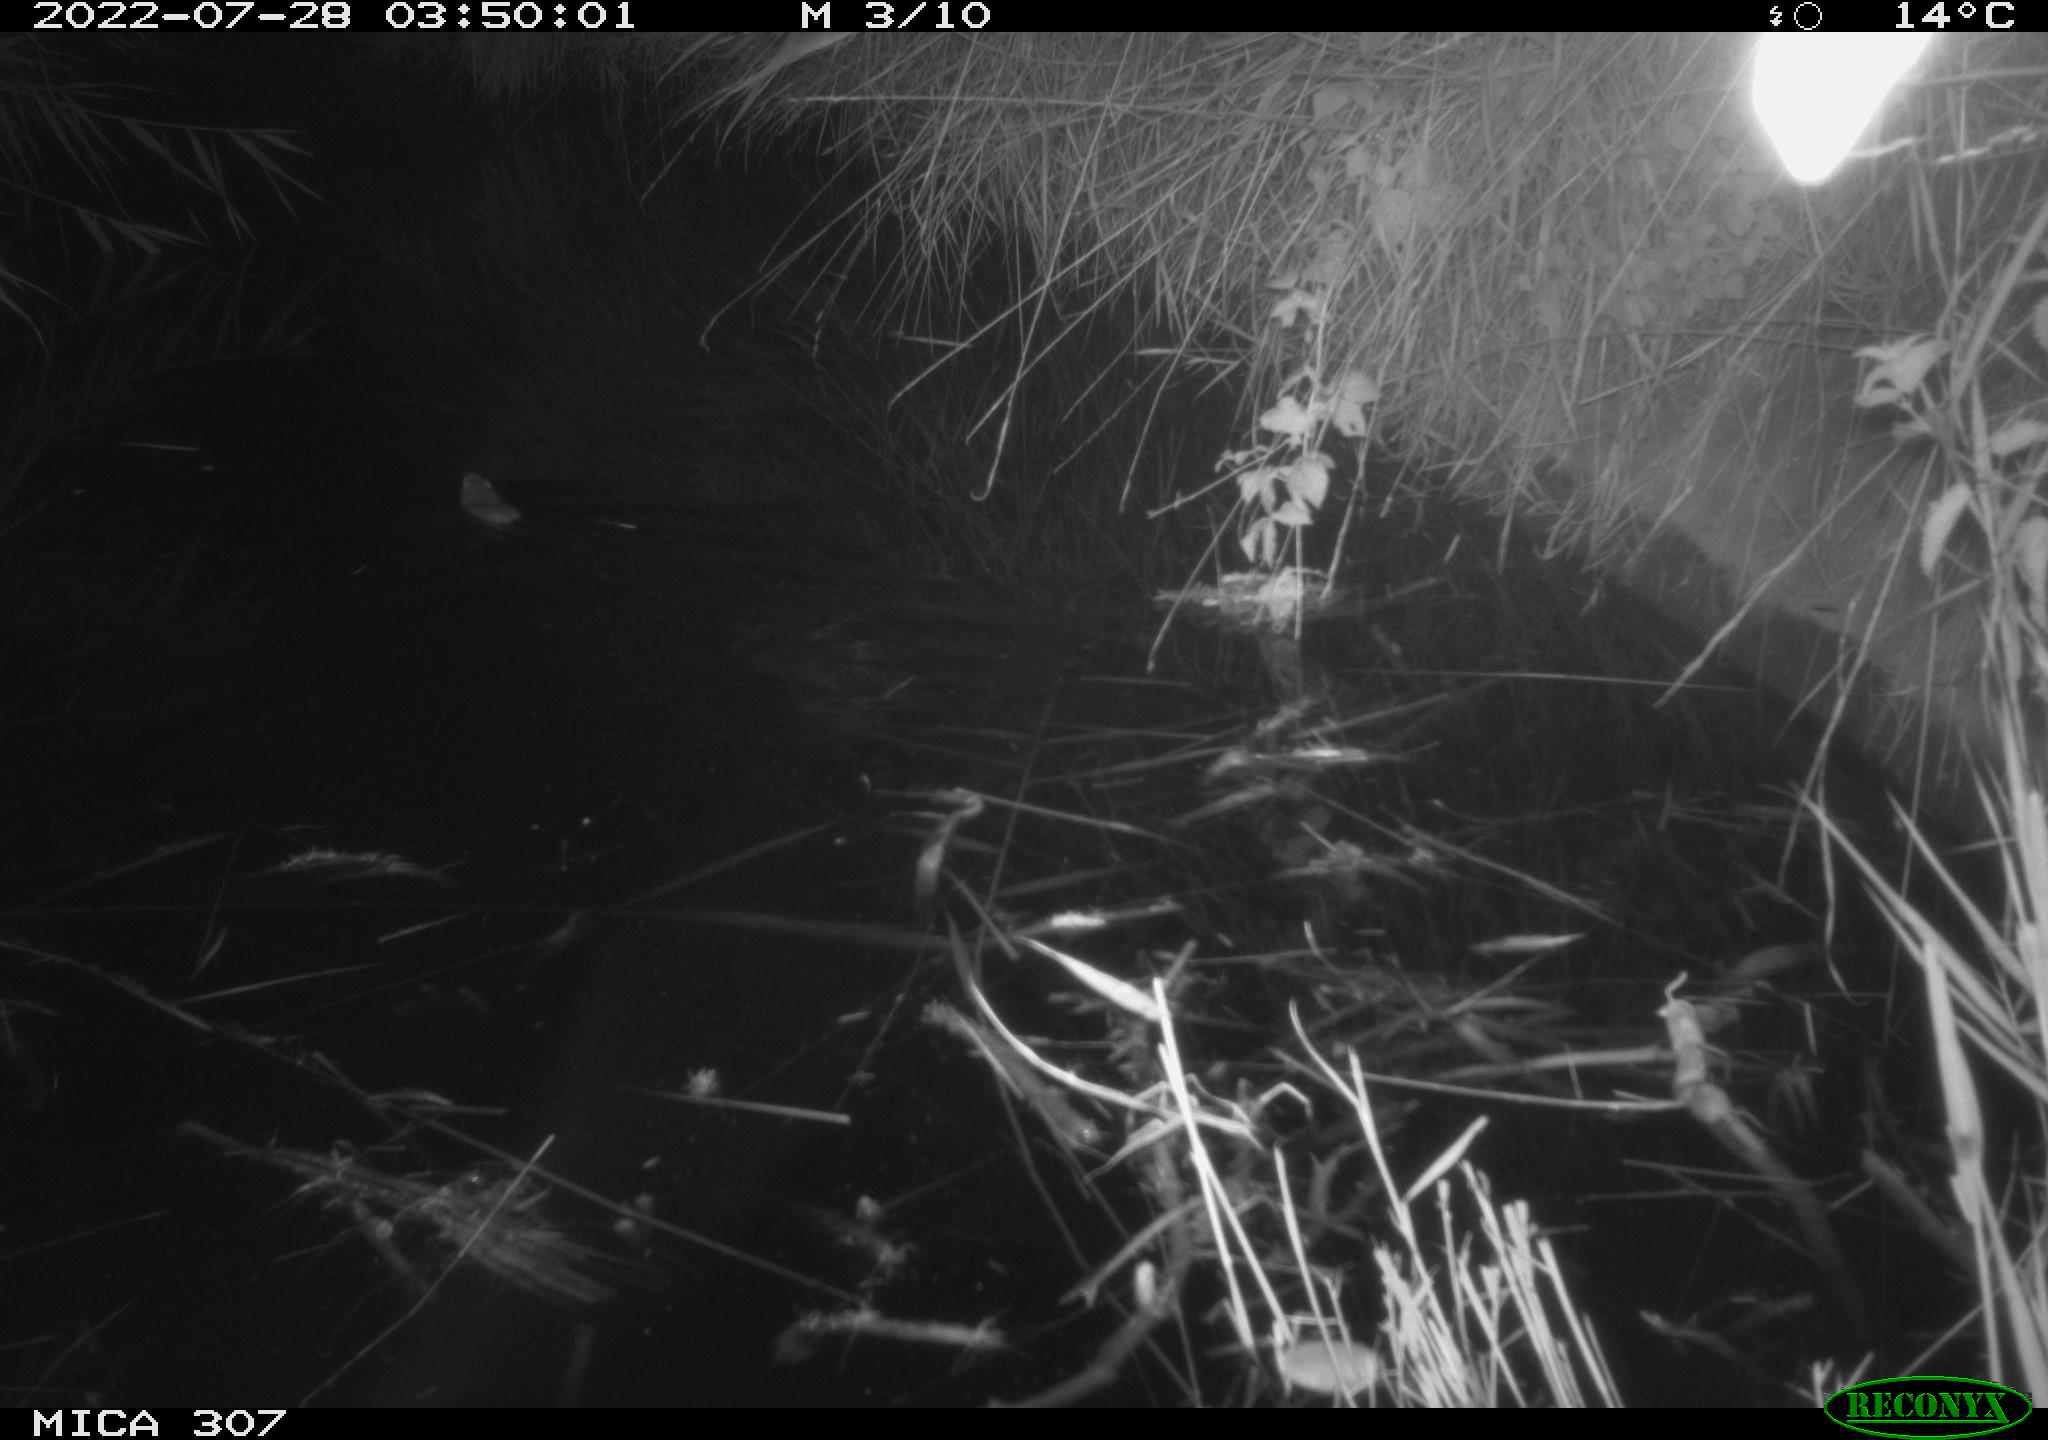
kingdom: Animalia
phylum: Chordata
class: Mammalia
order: Rodentia
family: Cricetidae
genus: Ondatra
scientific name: Ondatra zibethicus
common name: Muskrat
